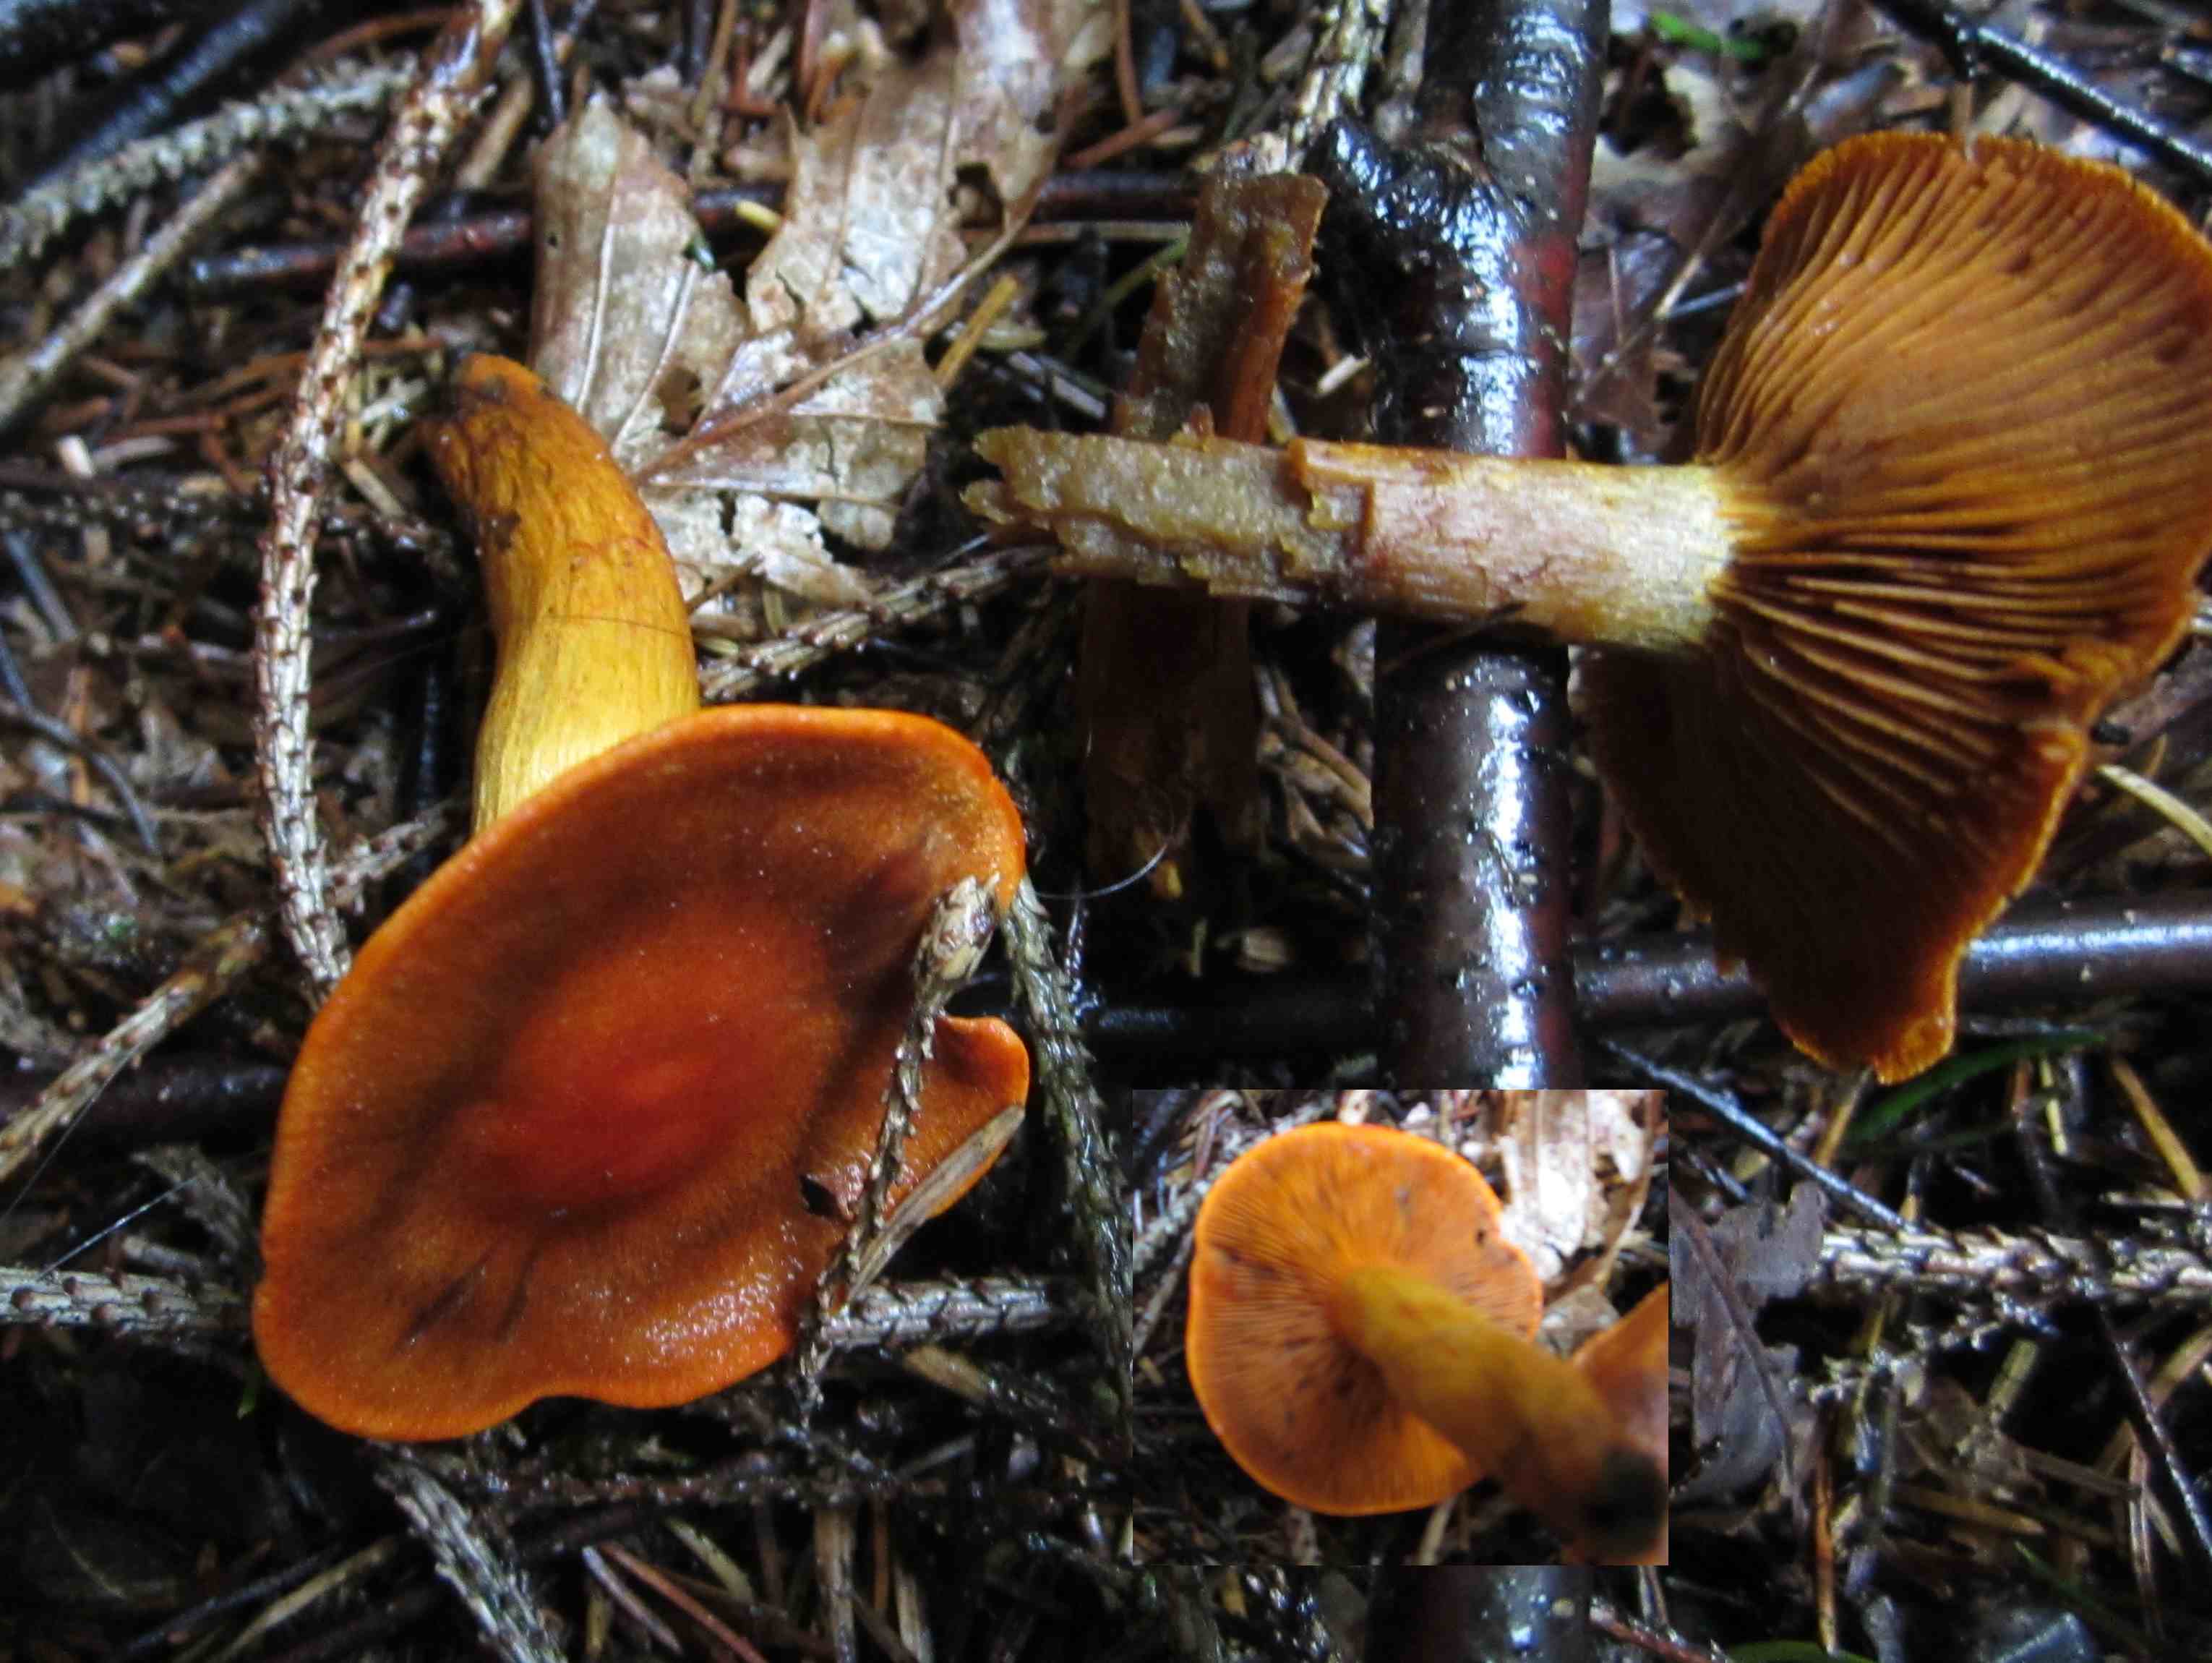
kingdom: Fungi
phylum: Basidiomycota
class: Agaricomycetes
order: Agaricales
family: Cortinariaceae
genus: Cortinarius
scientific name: Cortinarius malicorius
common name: grønkødet slørhat
